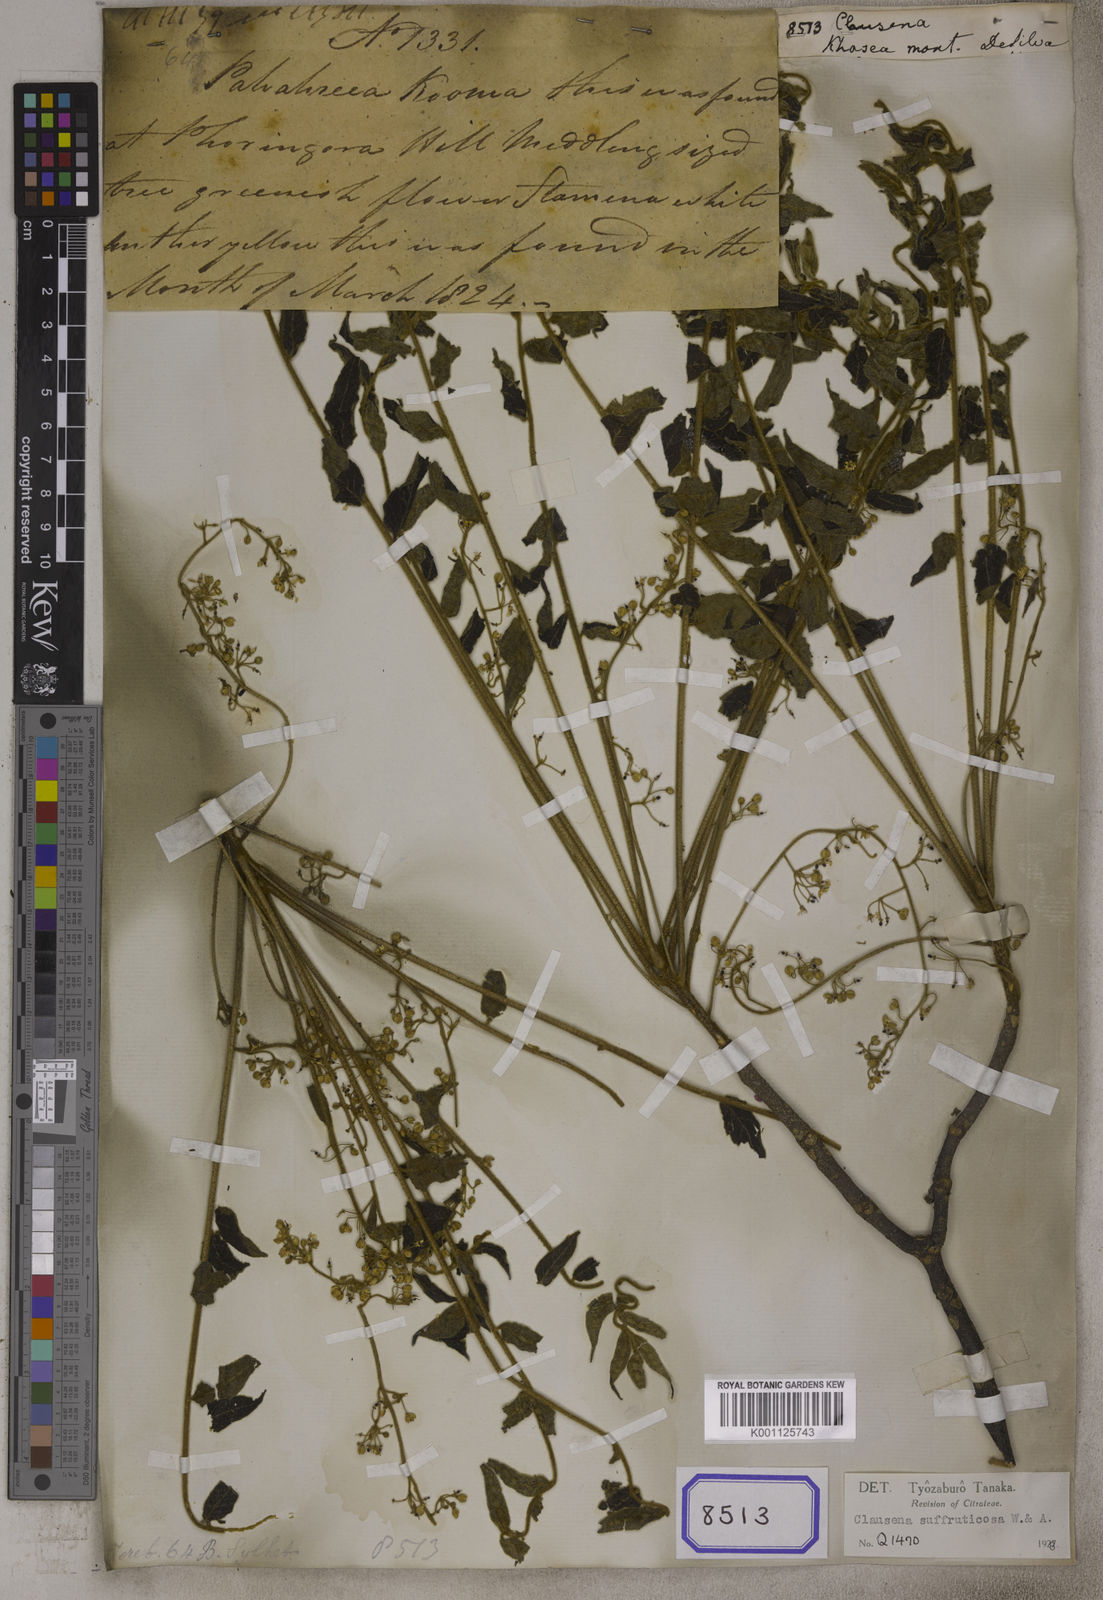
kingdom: Plantae
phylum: Tracheophyta
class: Magnoliopsida
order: Sapindales
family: Rutaceae
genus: Clausena
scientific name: Clausena
